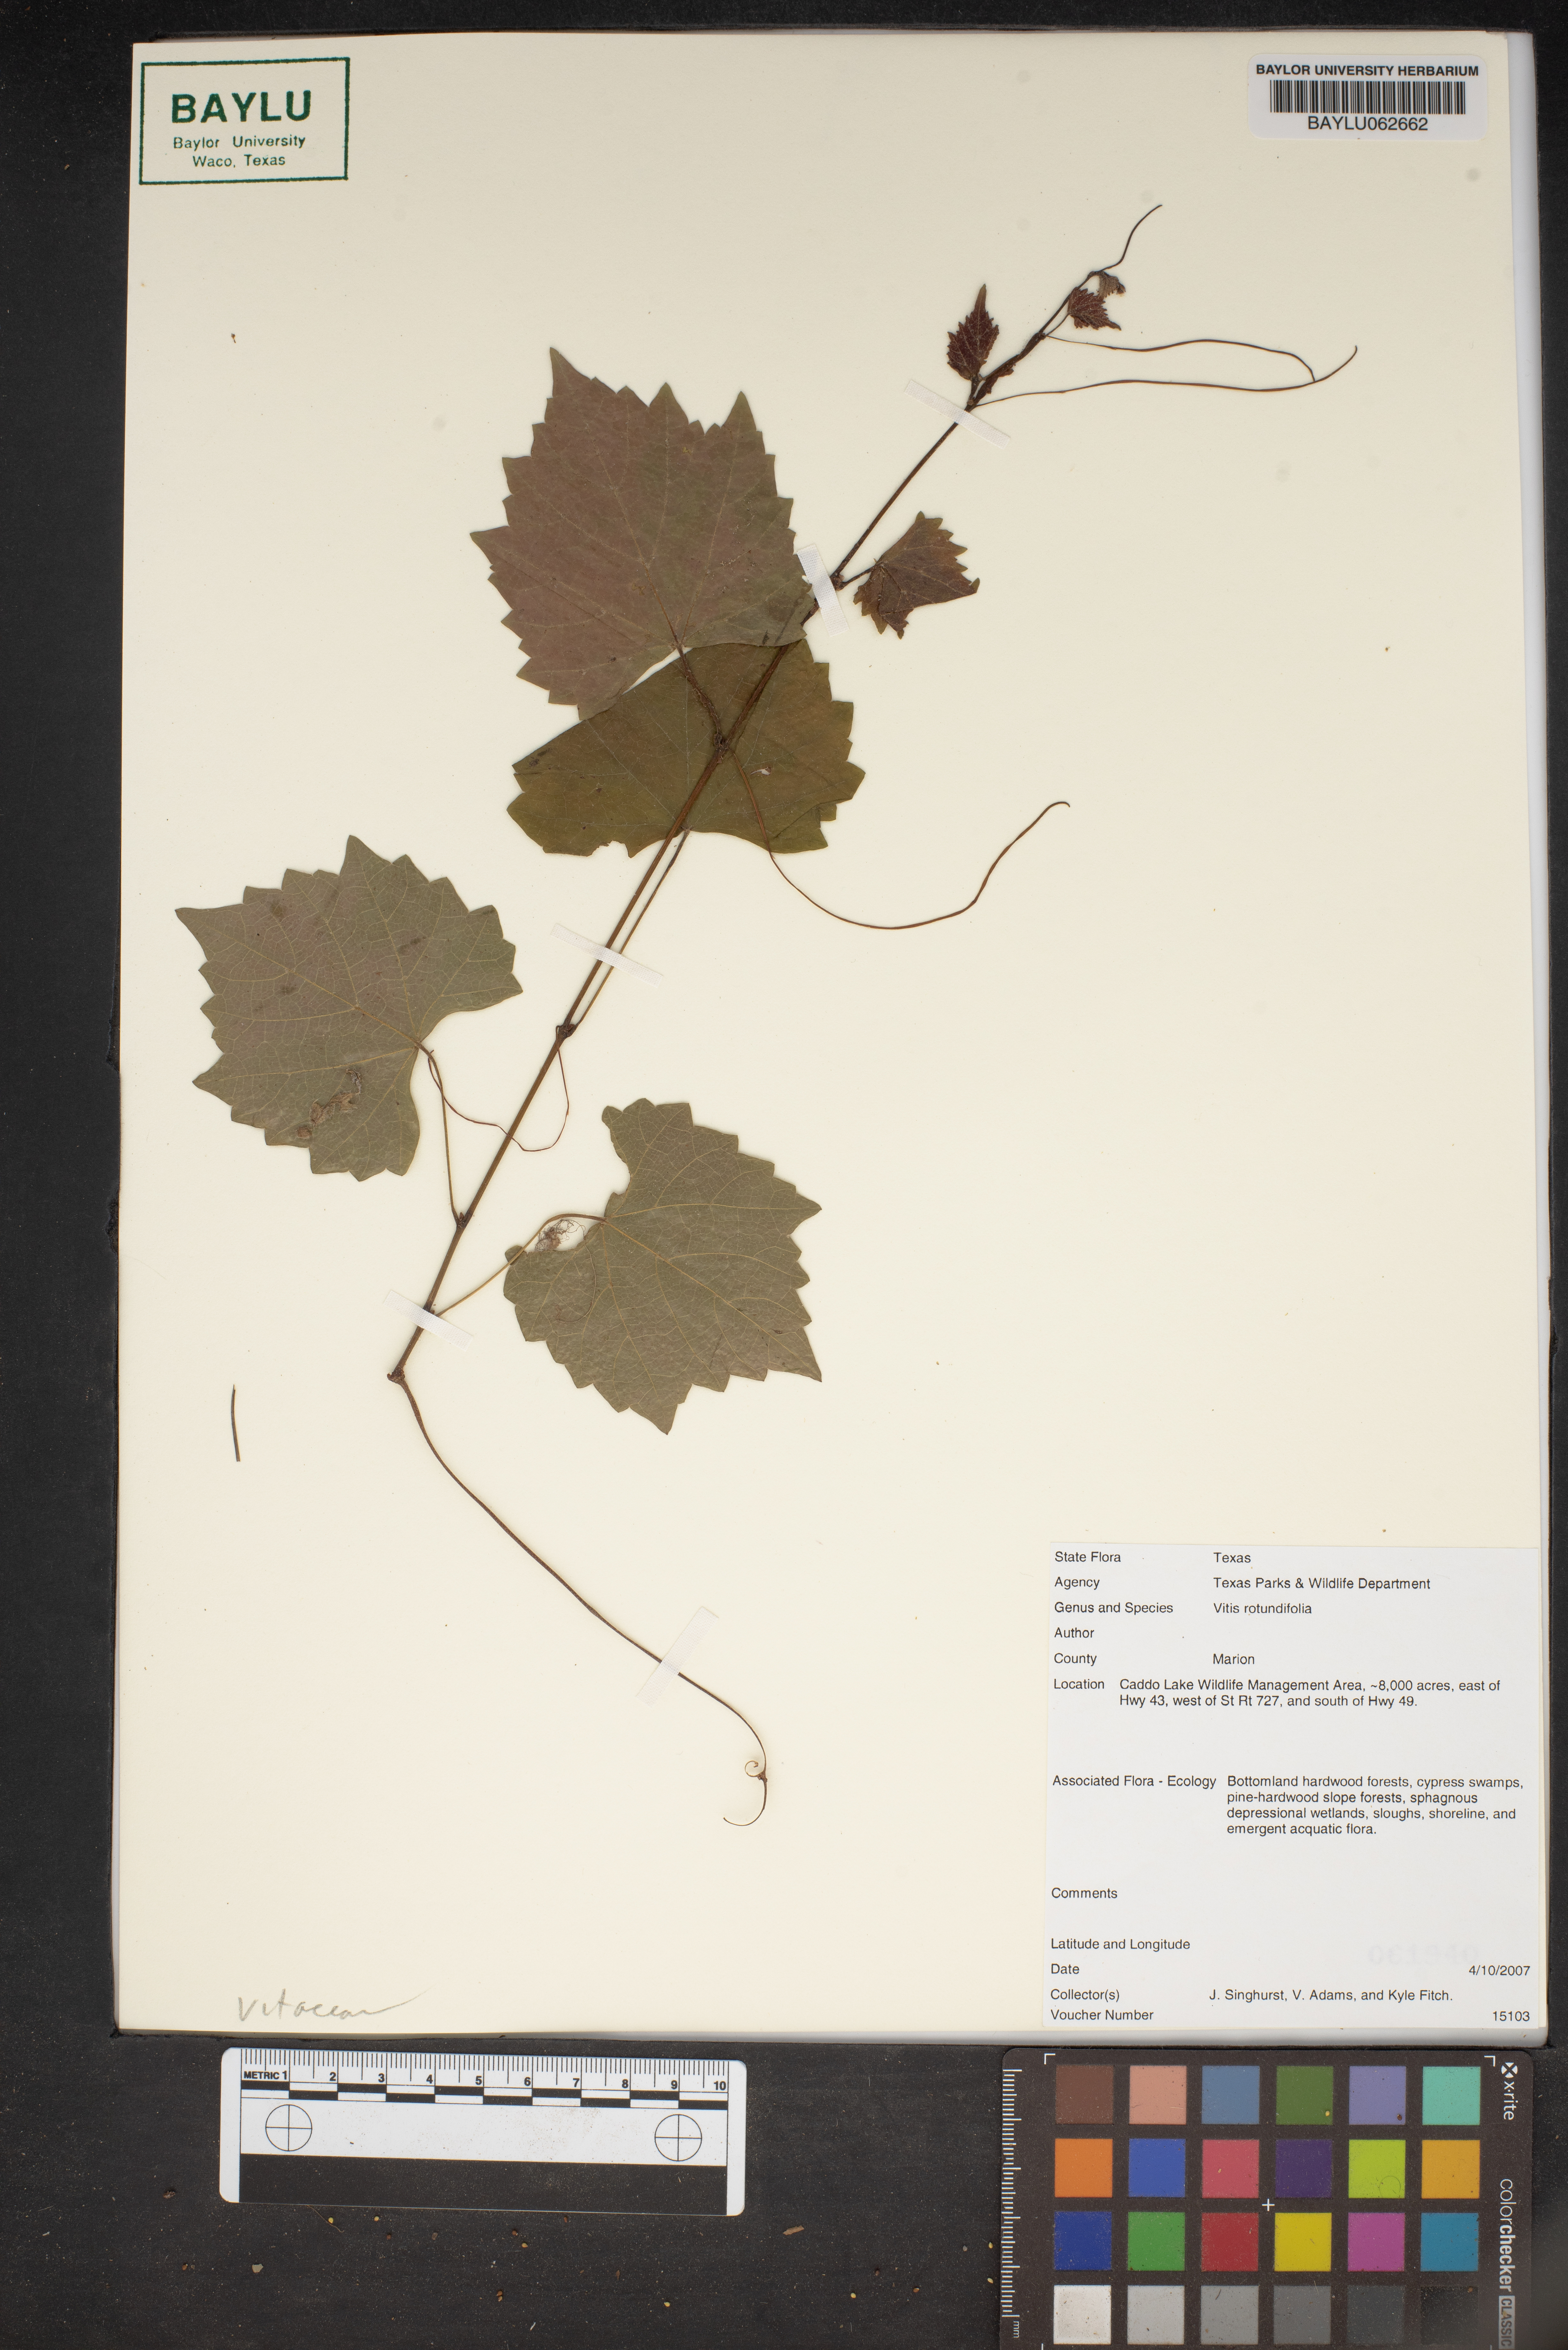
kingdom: Plantae
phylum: Tracheophyta
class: Magnoliopsida
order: Vitales
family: Vitaceae
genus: Vitis
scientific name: Vitis rotundifolia
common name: Muscadine grape
